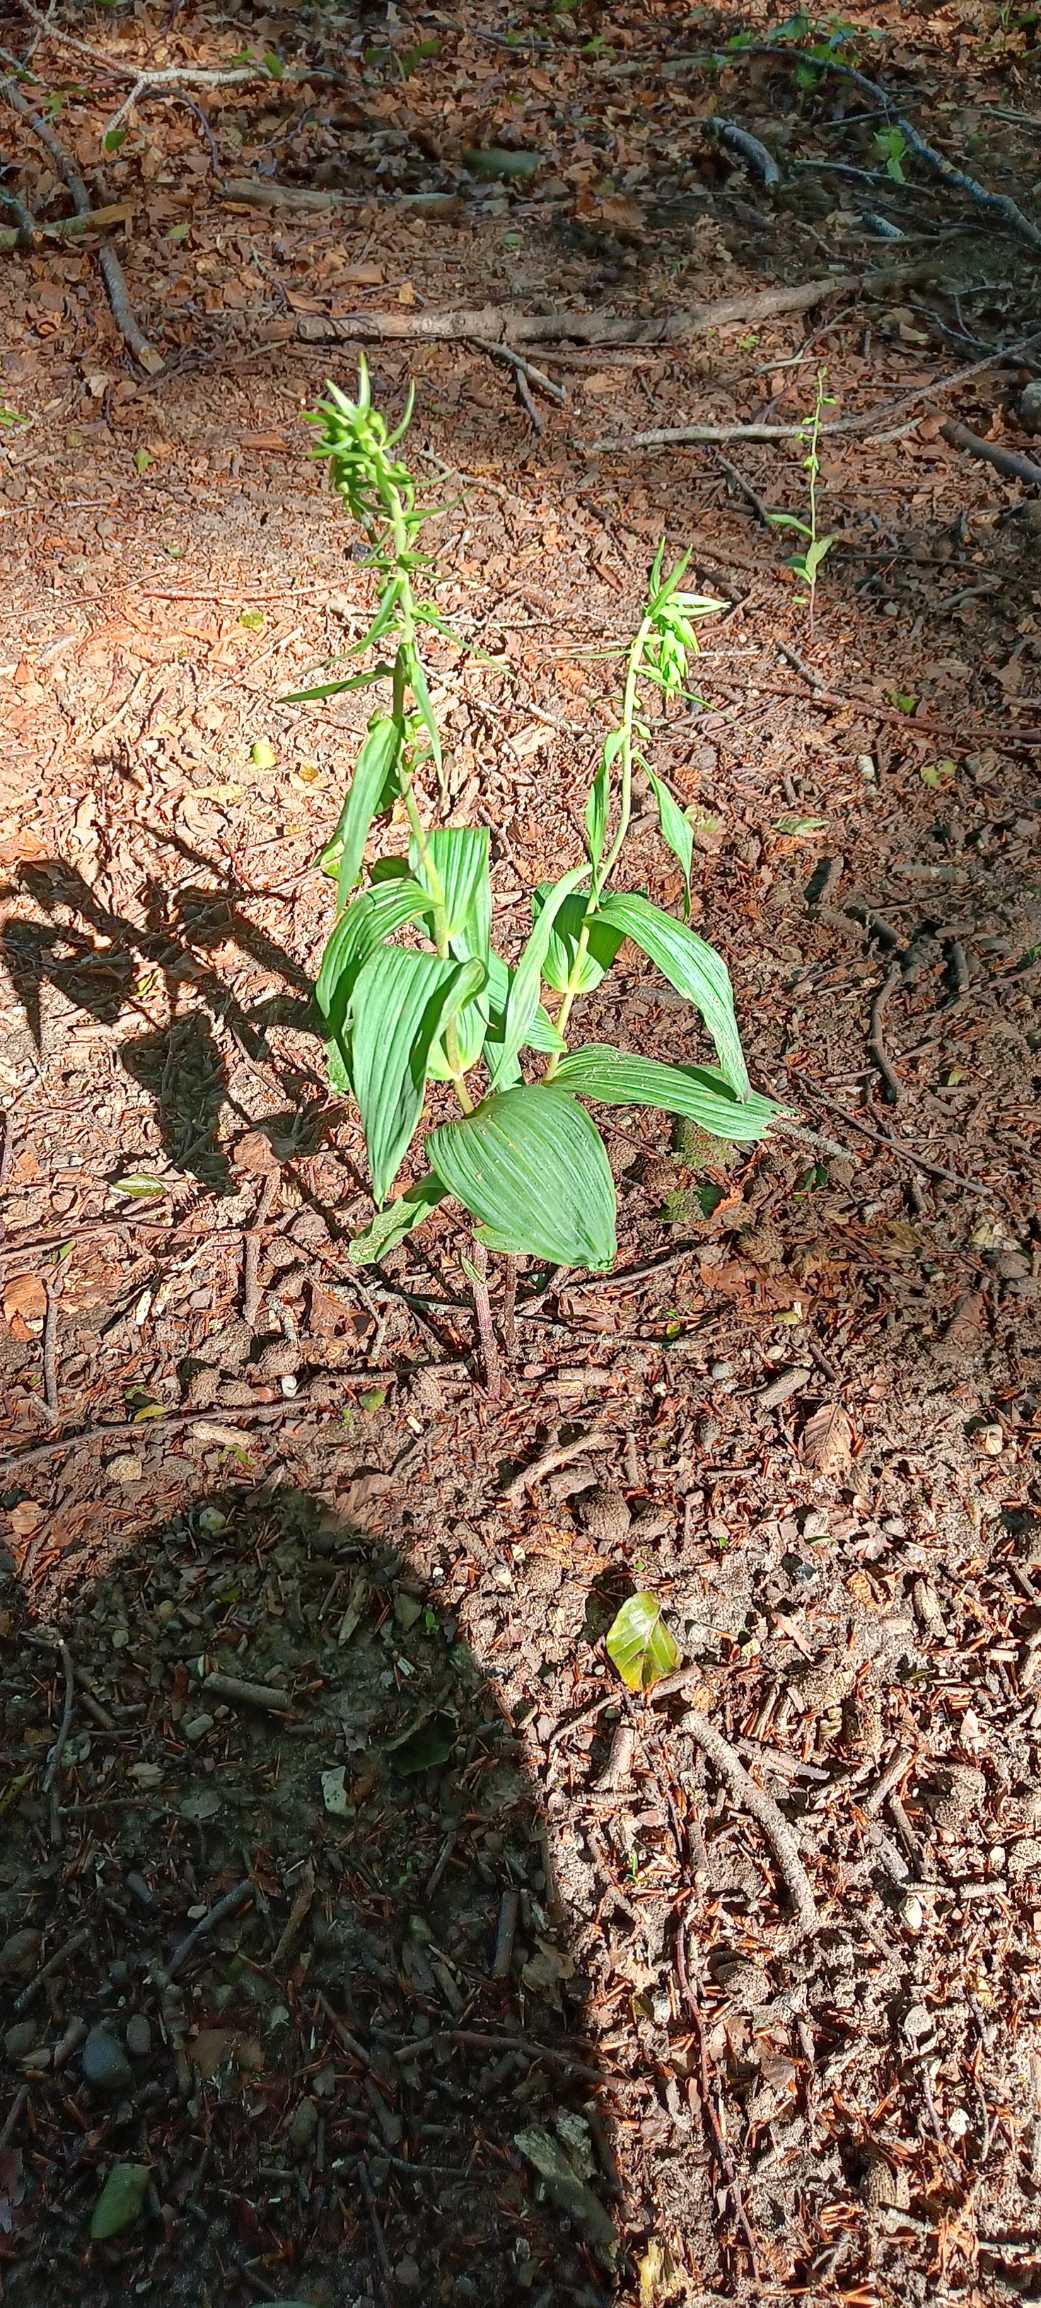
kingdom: Plantae
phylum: Tracheophyta
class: Liliopsida
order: Asparagales
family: Orchidaceae
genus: Epipactis
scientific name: Epipactis helleborine
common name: Skov-hullæbe
